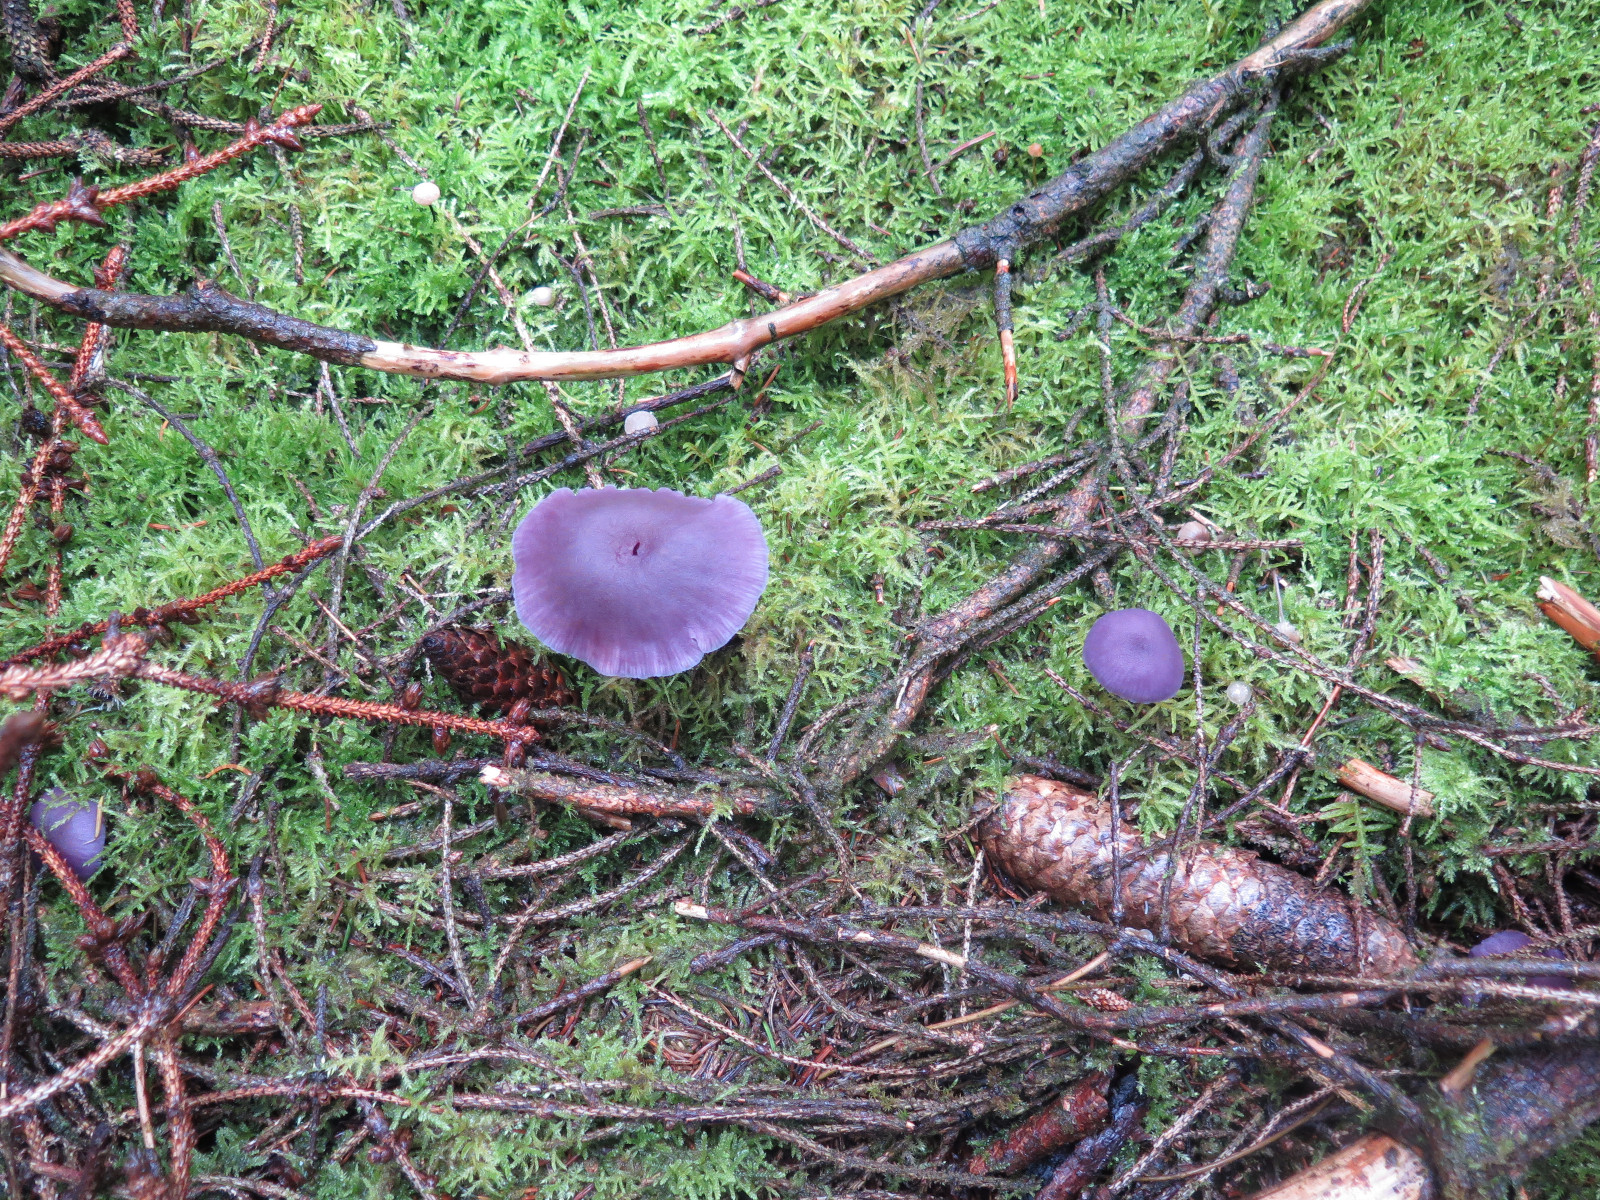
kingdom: Fungi
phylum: Basidiomycota
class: Agaricomycetes
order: Agaricales
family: Hydnangiaceae
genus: Laccaria
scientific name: Laccaria amethystina
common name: violet ametysthat
